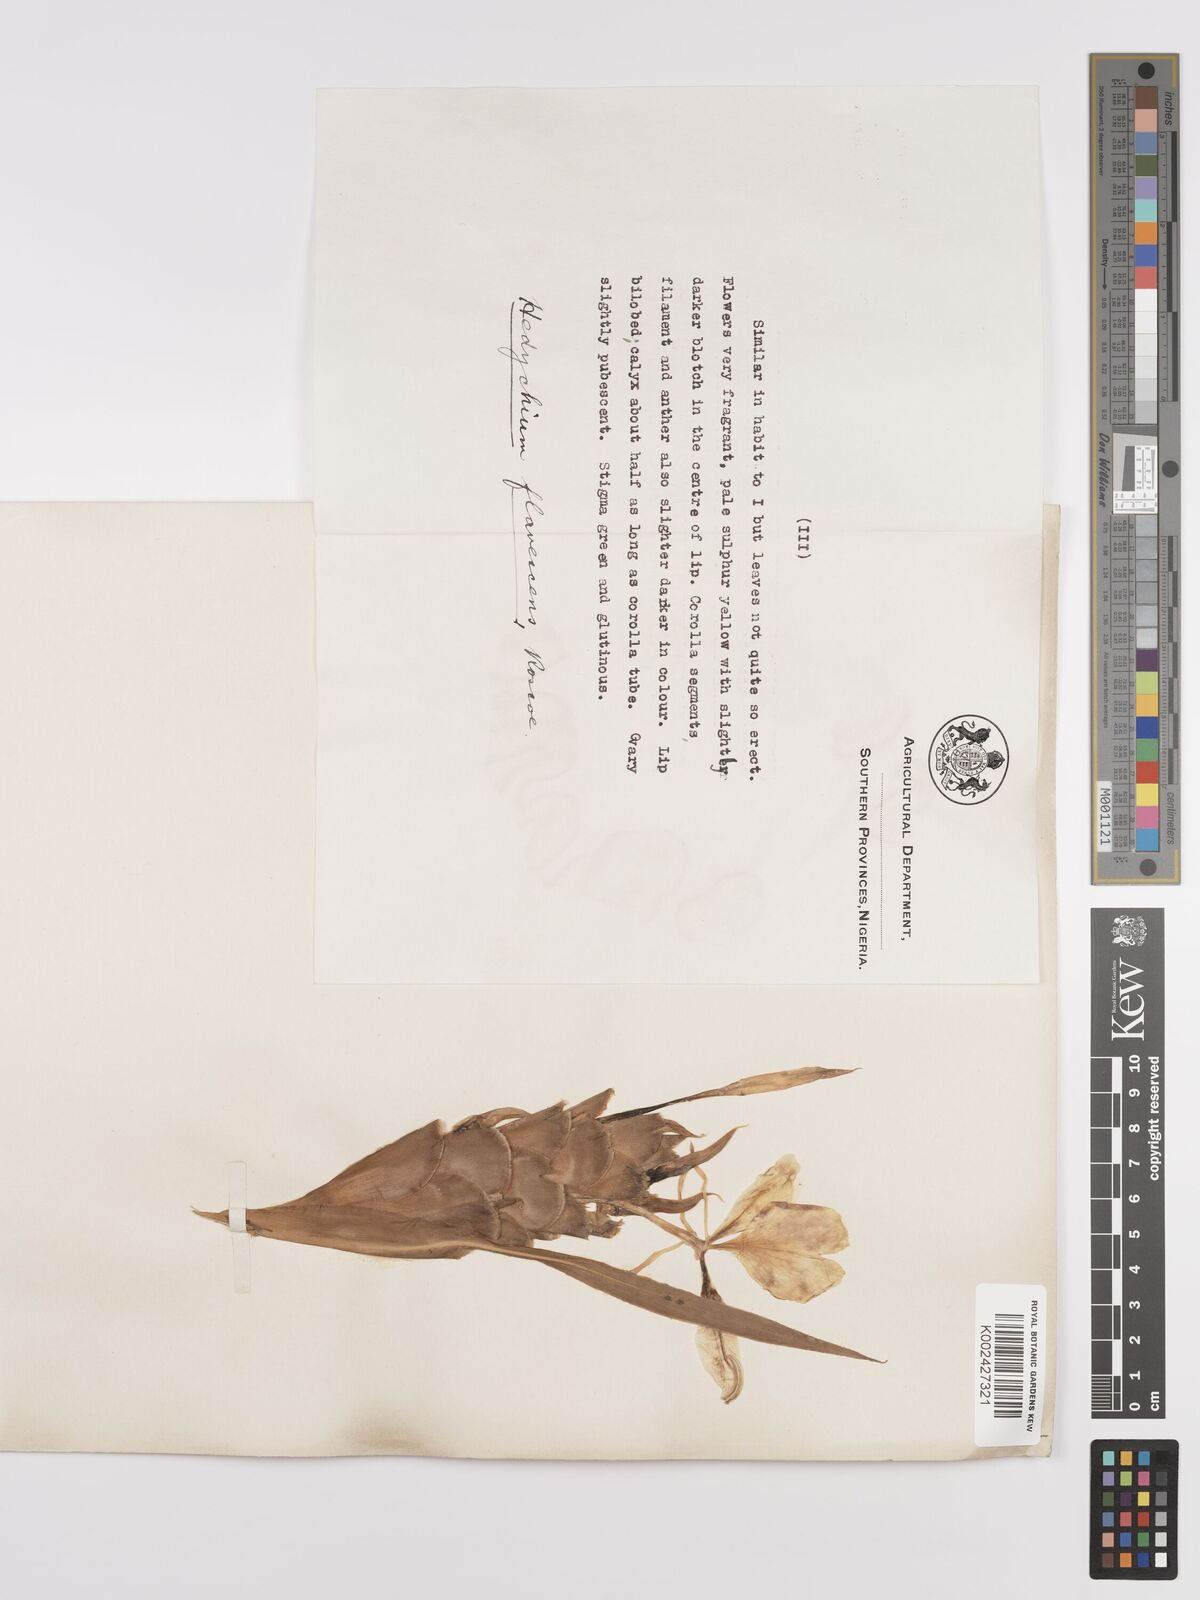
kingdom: Plantae
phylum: Tracheophyta
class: Liliopsida
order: Zingiberales
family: Zingiberaceae
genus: Hedychium
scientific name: Hedychium flavescens
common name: Yellow ginger
